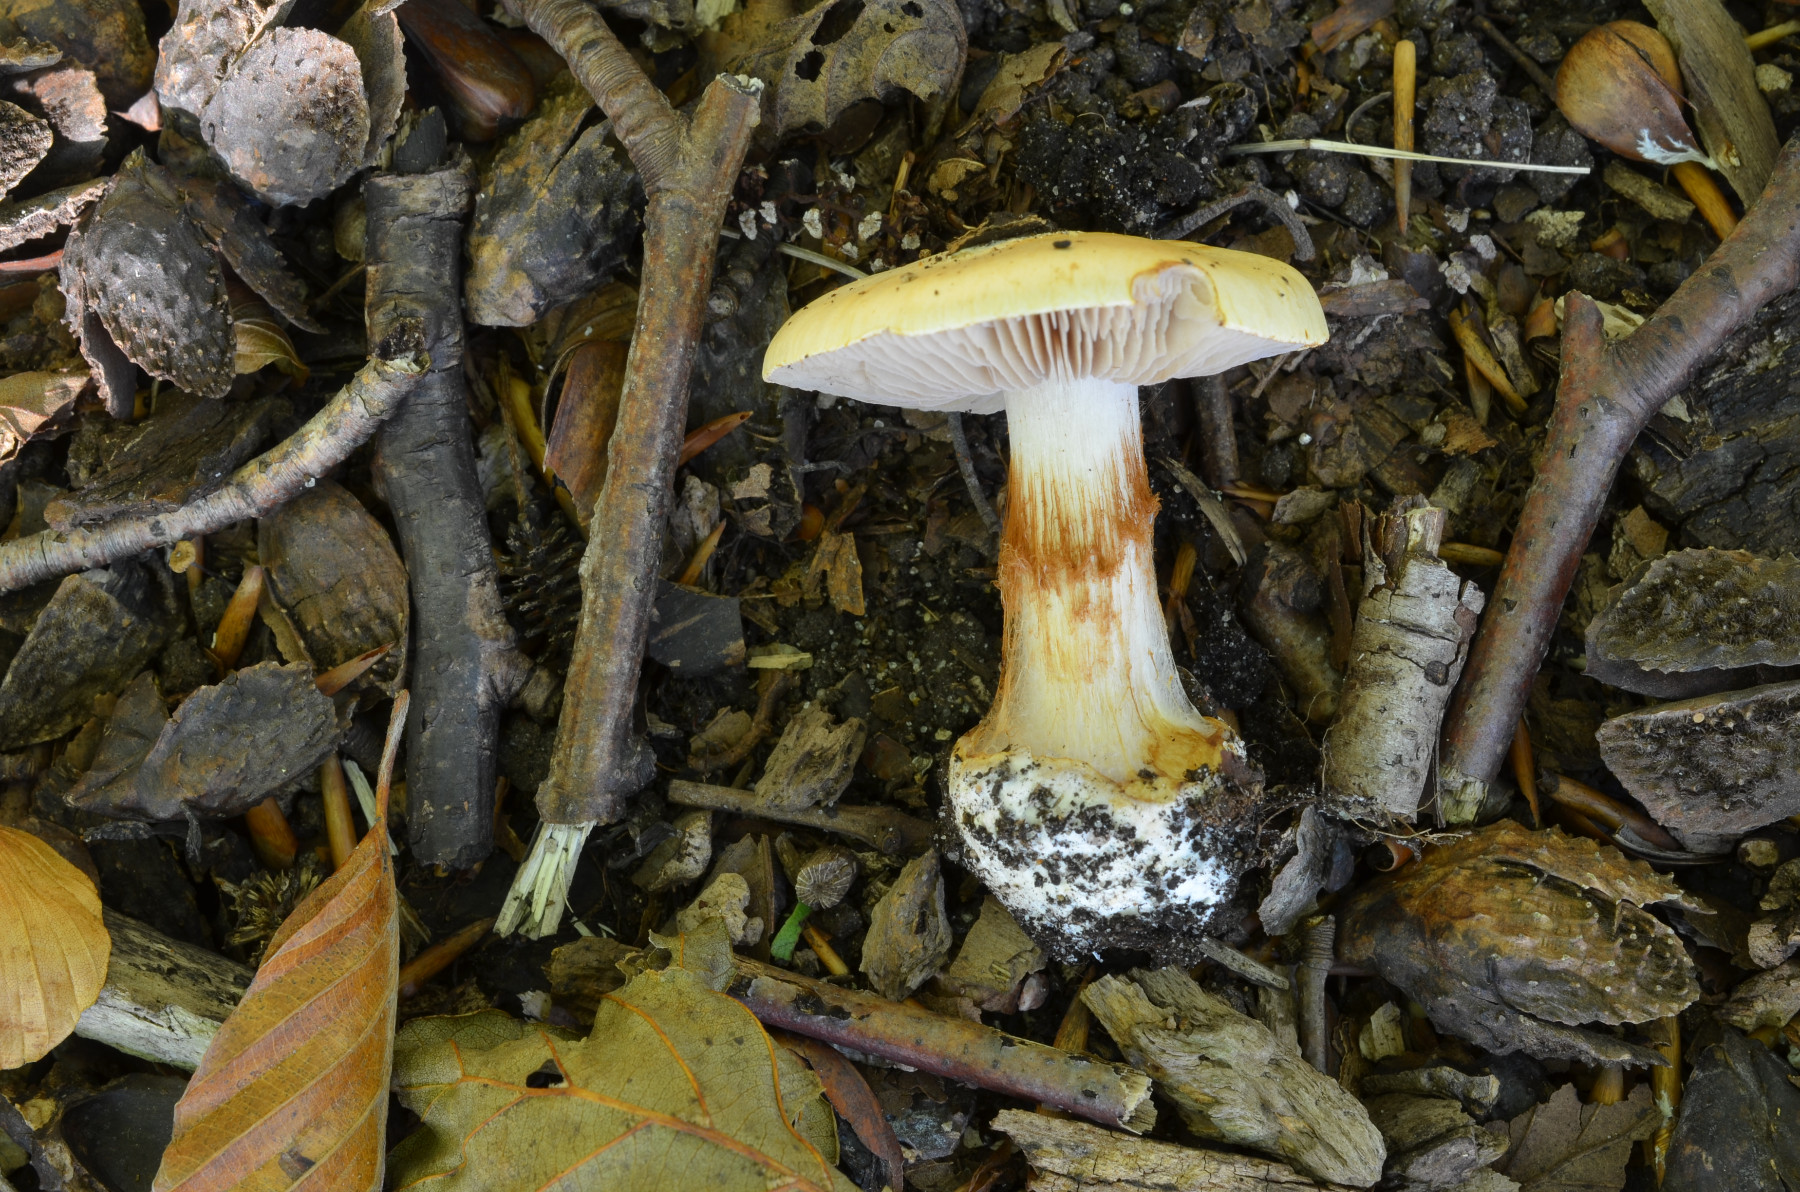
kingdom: Fungi
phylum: Basidiomycota
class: Agaricomycetes
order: Agaricales
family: Cortinariaceae
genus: Calonarius
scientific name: Calonarius lilacinovelatus
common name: violetknoldet slørhat
